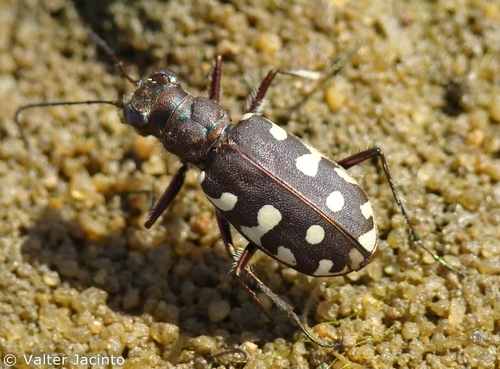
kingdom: Animalia
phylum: Arthropoda
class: Insecta
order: Coleoptera
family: Carabidae
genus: Cicindela
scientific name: Cicindela littoralis
